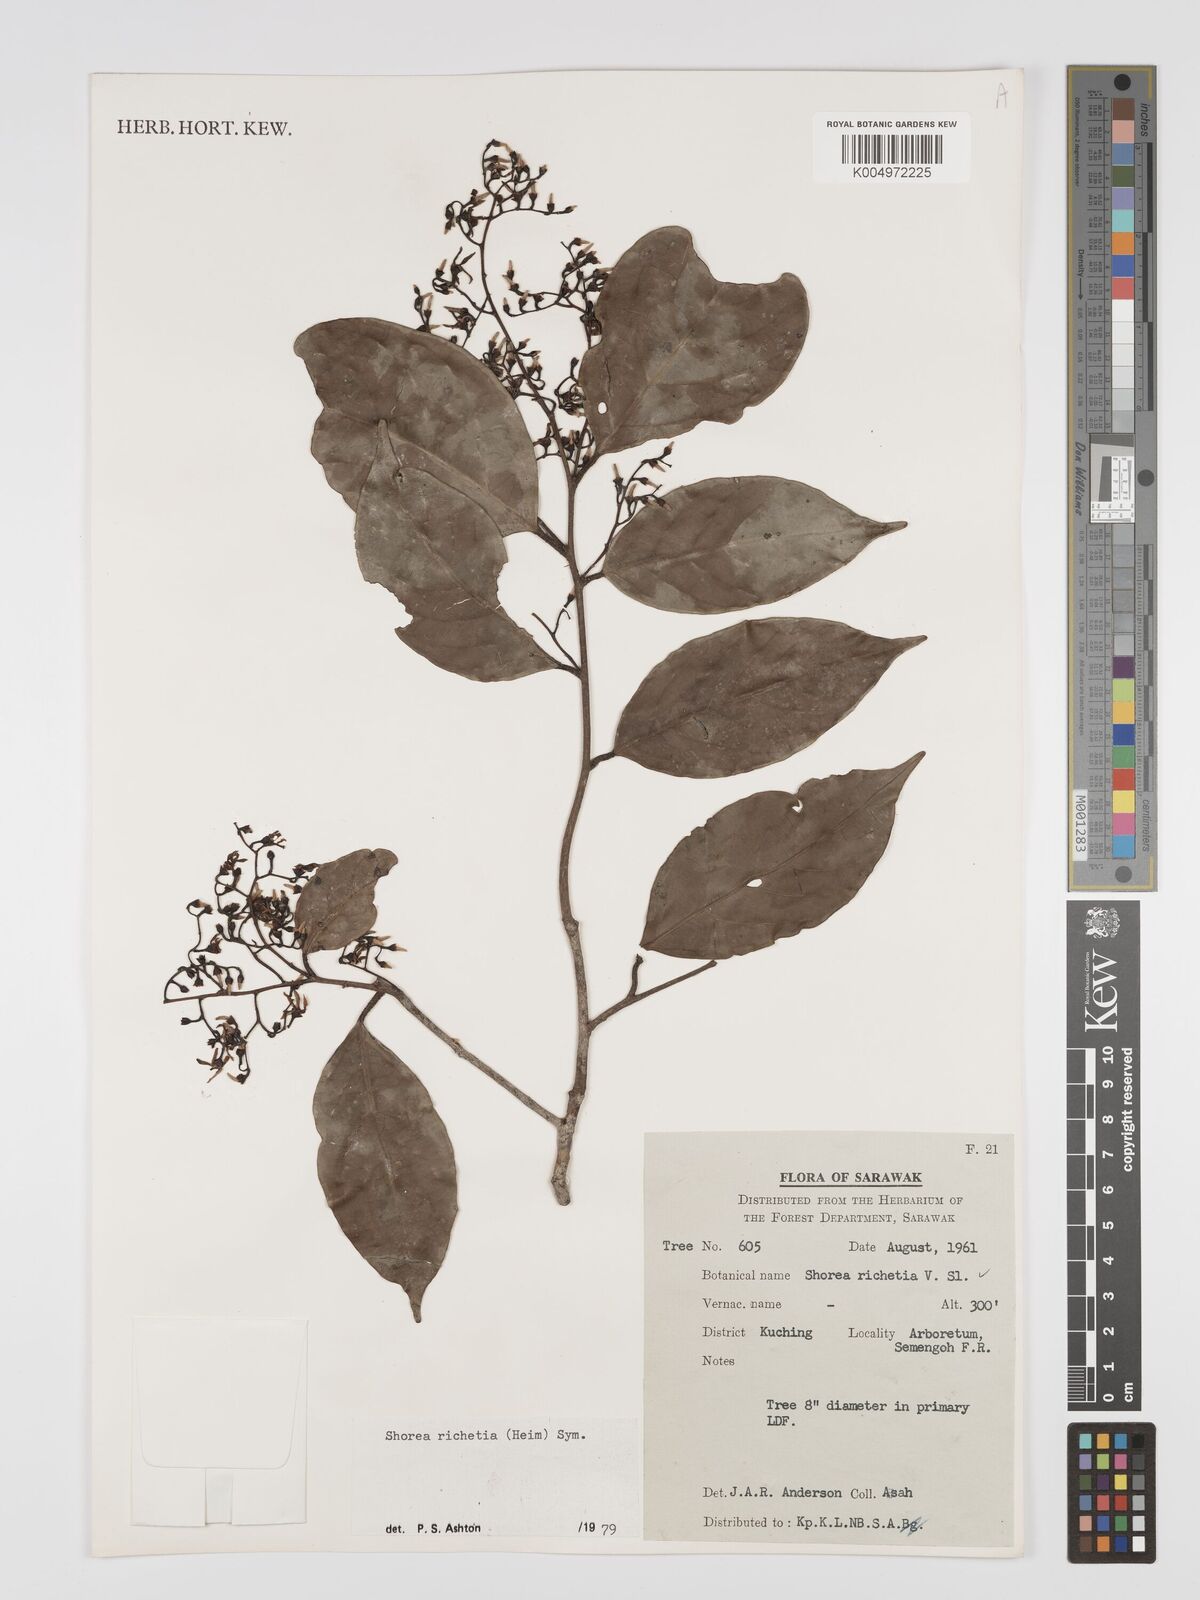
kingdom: Plantae
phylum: Tracheophyta
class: Magnoliopsida
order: Malvales
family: Dipterocarpaceae
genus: Shorea
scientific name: Shorea richetia
